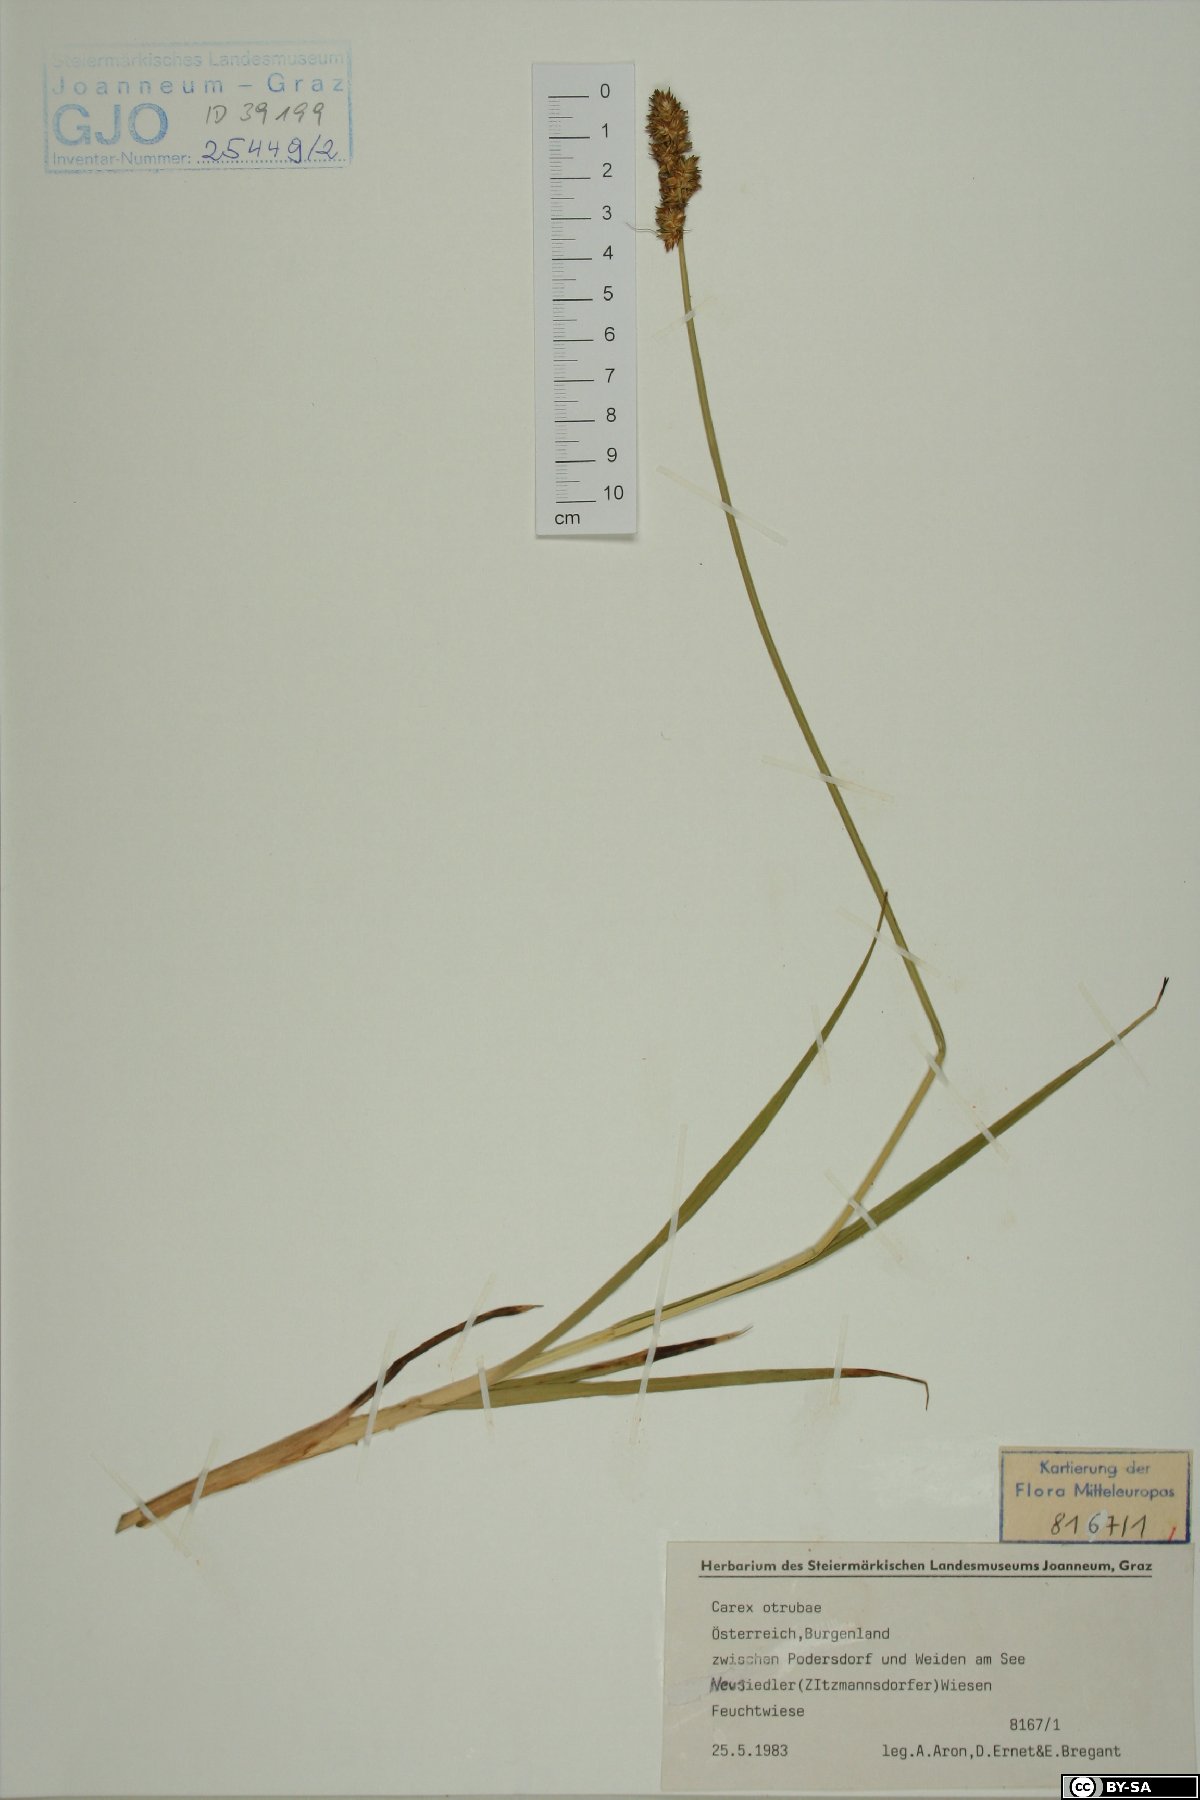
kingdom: Plantae
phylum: Tracheophyta
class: Liliopsida
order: Poales
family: Cyperaceae
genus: Carex
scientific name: Carex otrubae
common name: False fox-sedge
